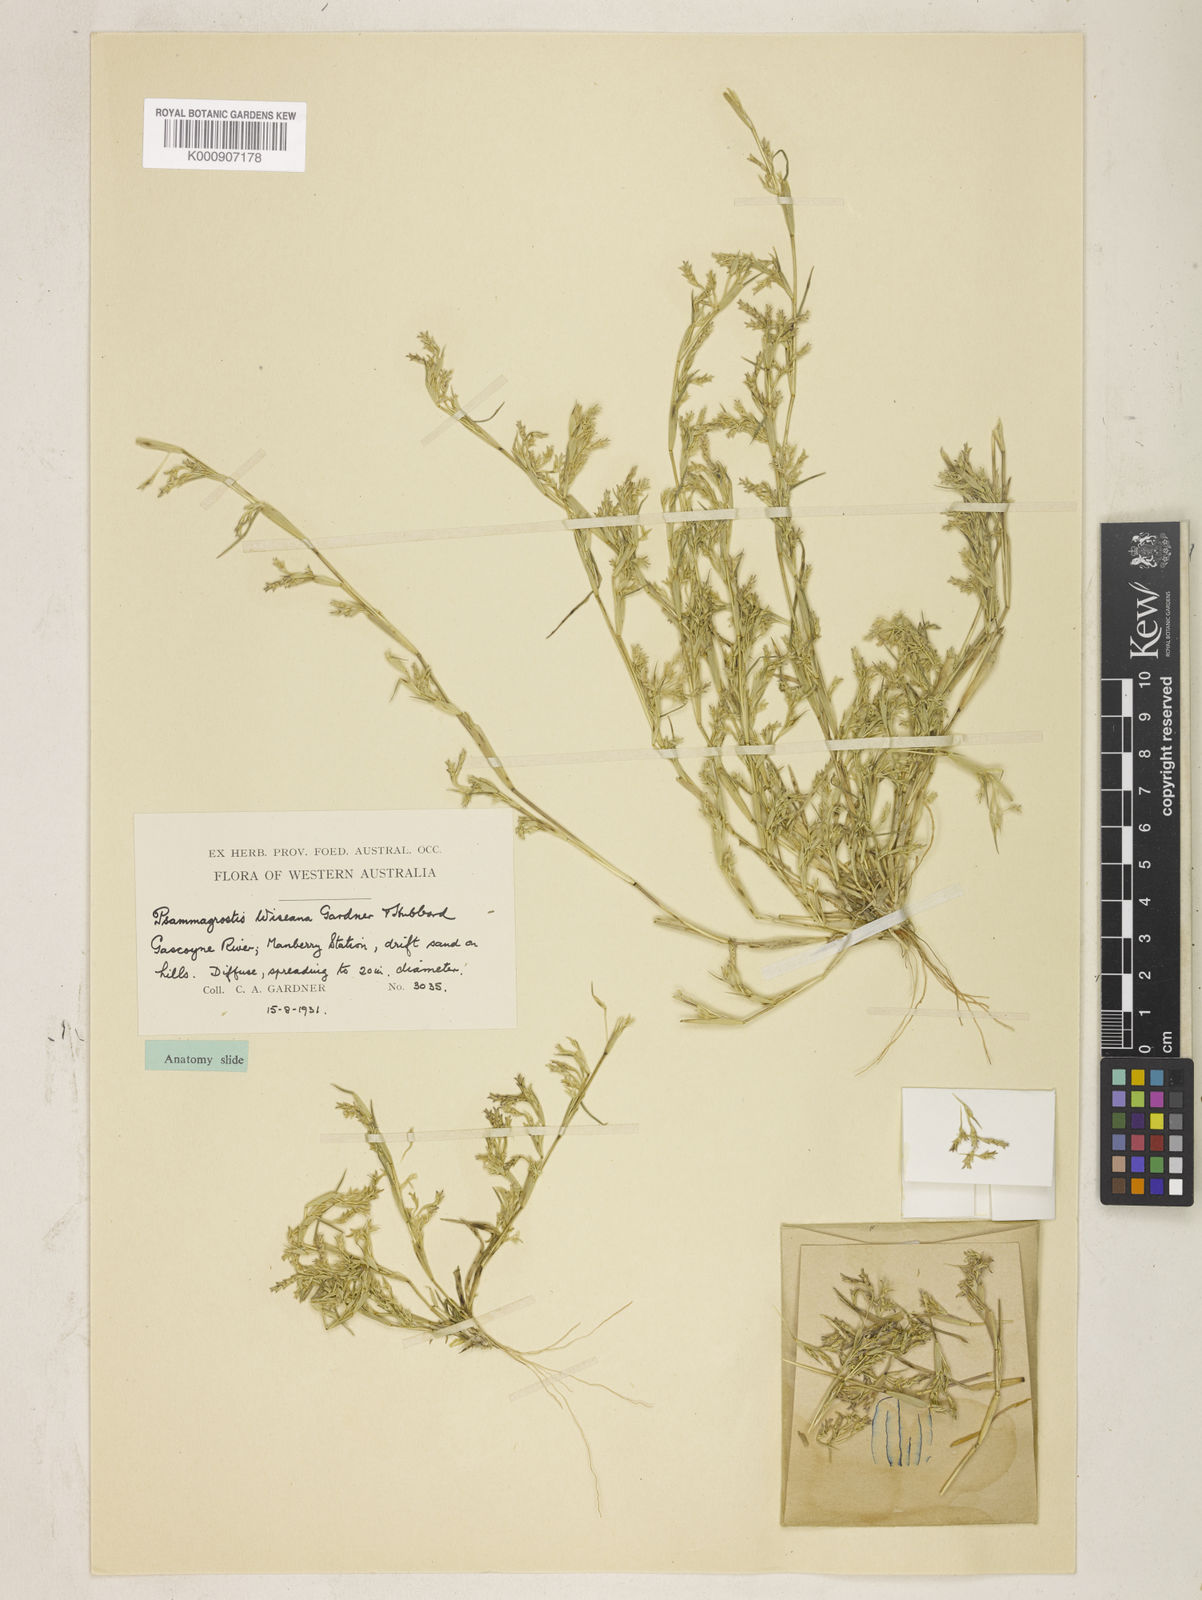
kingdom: Plantae
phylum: Tracheophyta
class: Liliopsida
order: Poales
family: Poaceae
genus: Eragrostis
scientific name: Eragrostis wiseana
